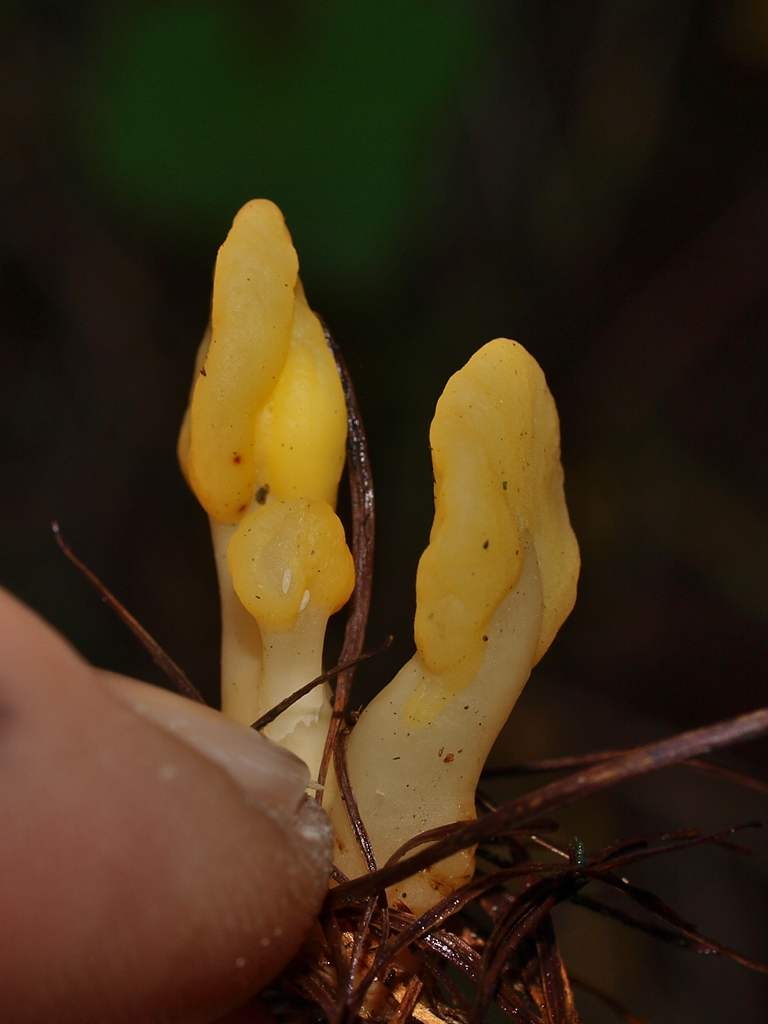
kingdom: Fungi
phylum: Ascomycota
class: Leotiomycetes
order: Rhytismatales
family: Cudoniaceae
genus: Spathularia
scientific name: Spathularia flavida
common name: gul spatelsvamp
